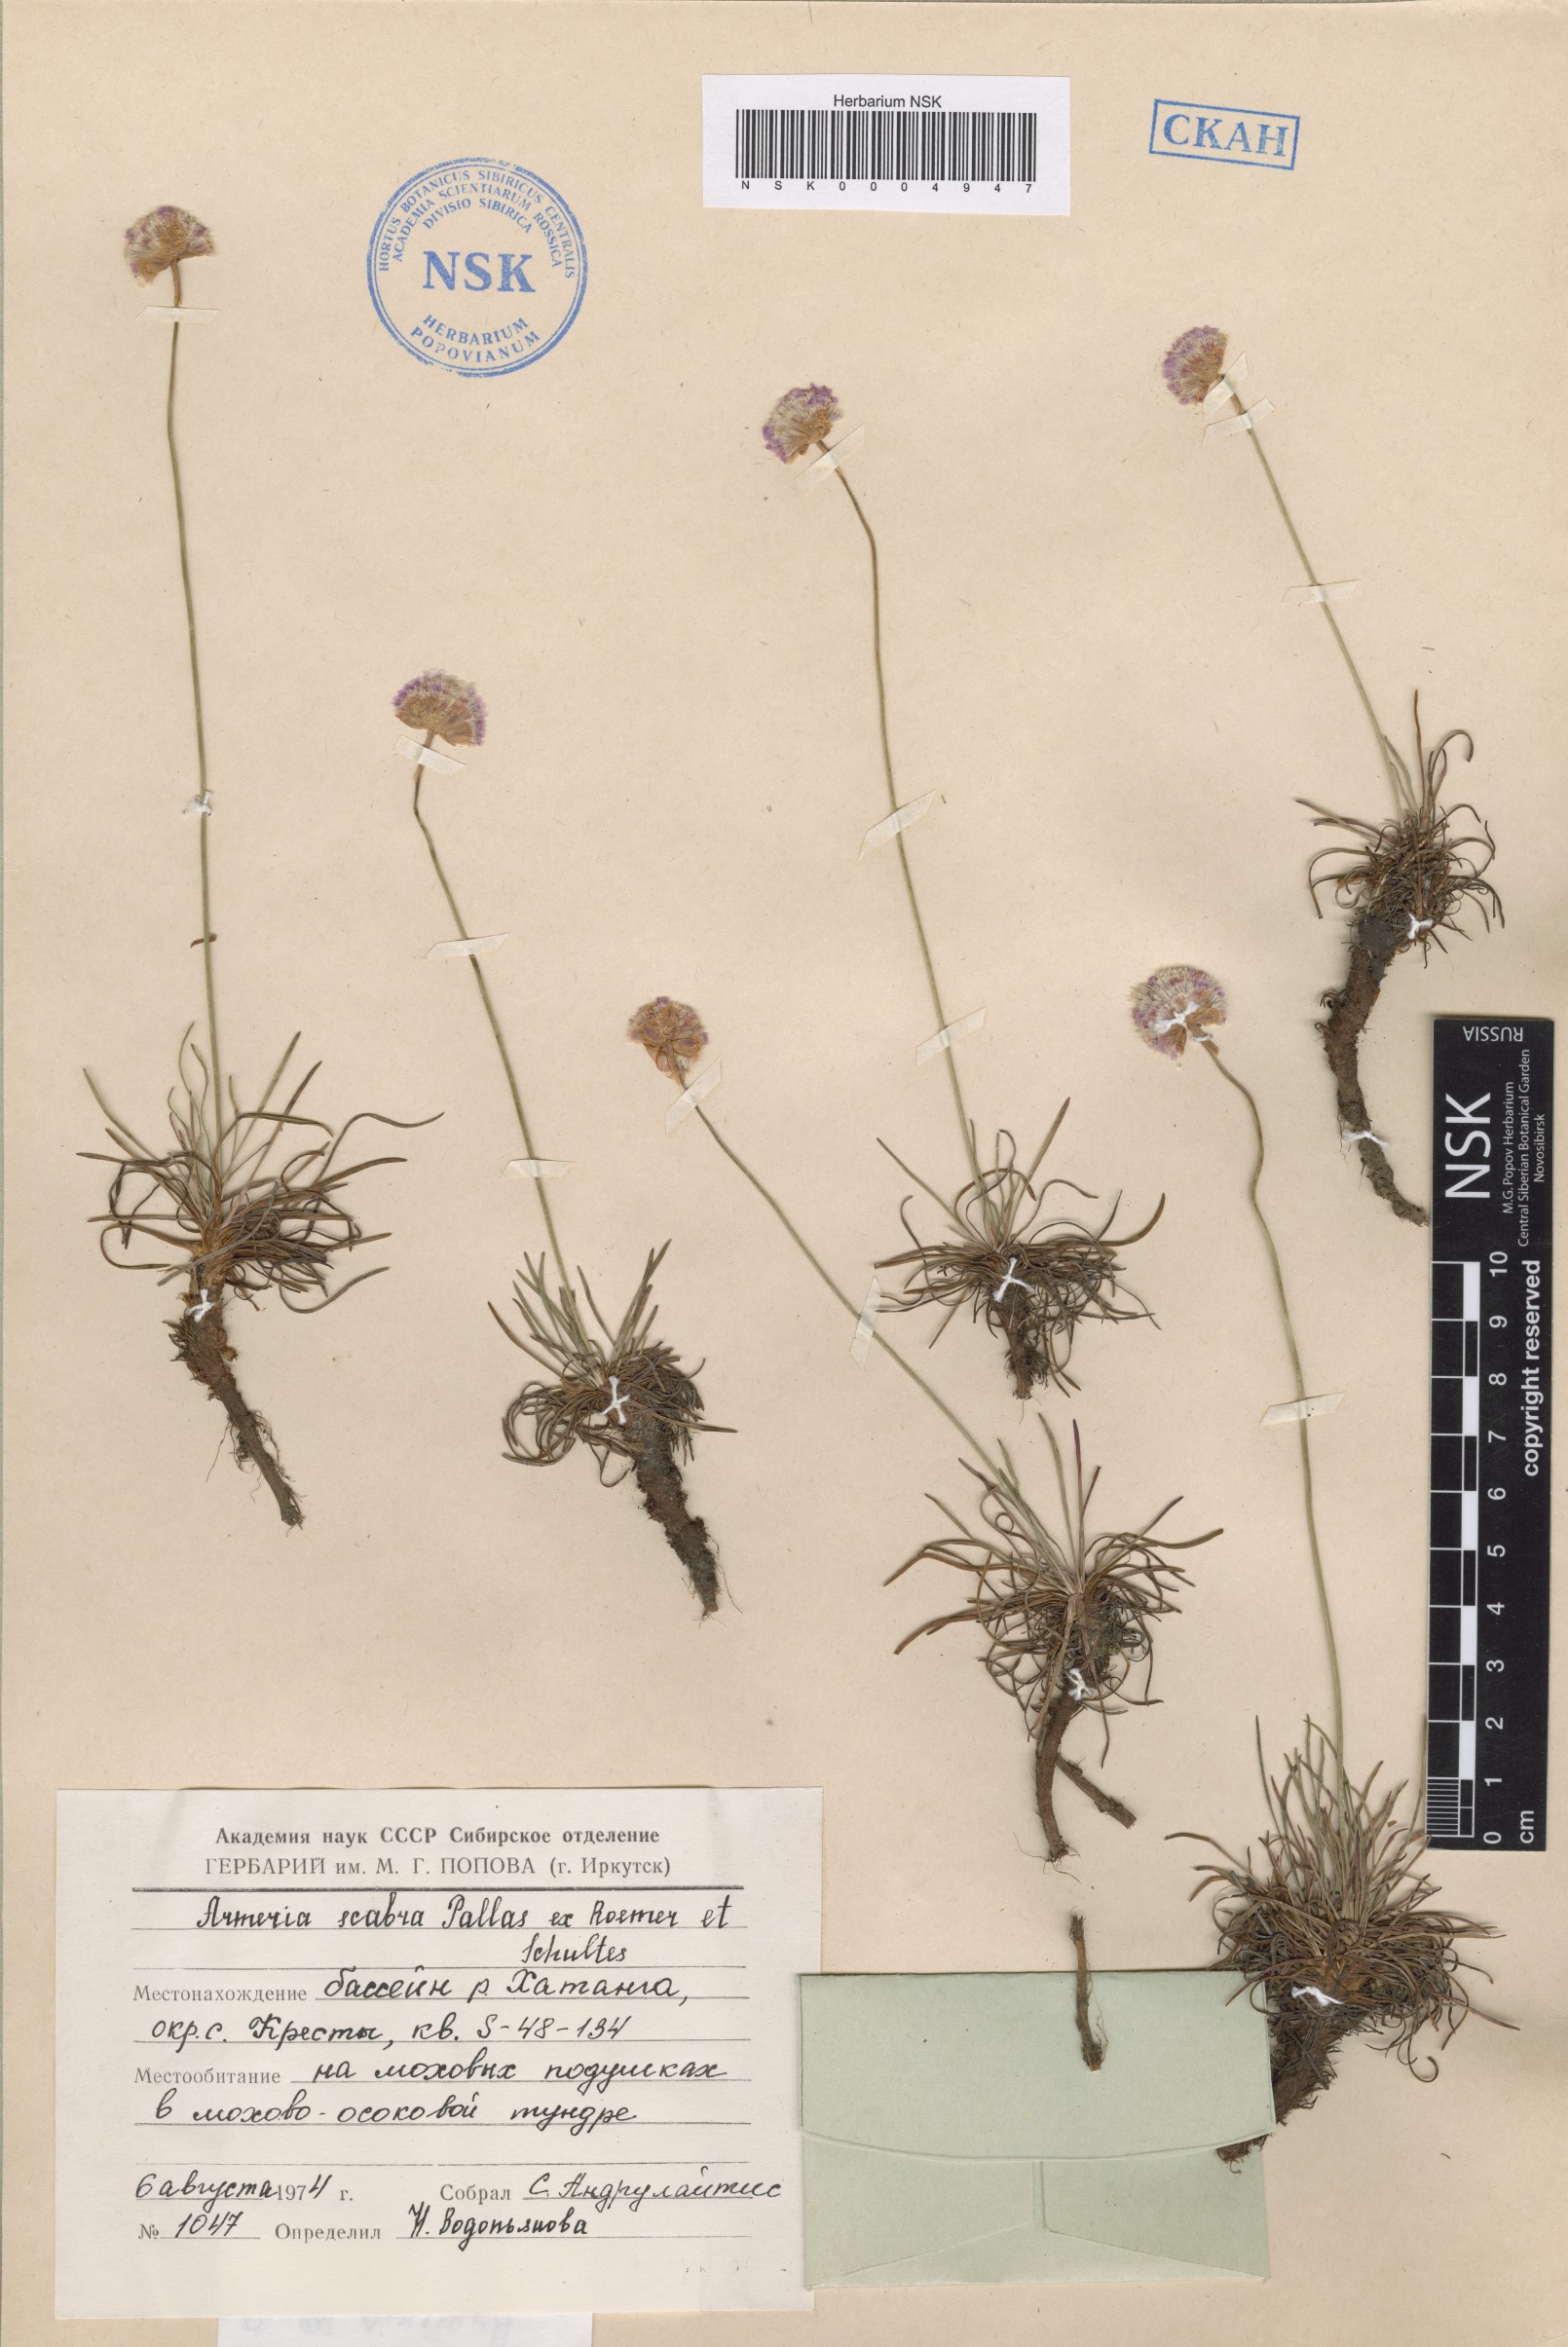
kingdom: Plantae
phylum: Tracheophyta
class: Magnoliopsida
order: Caryophyllales
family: Plumbaginaceae
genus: Armeria
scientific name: Armeria maritima
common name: Thrift
